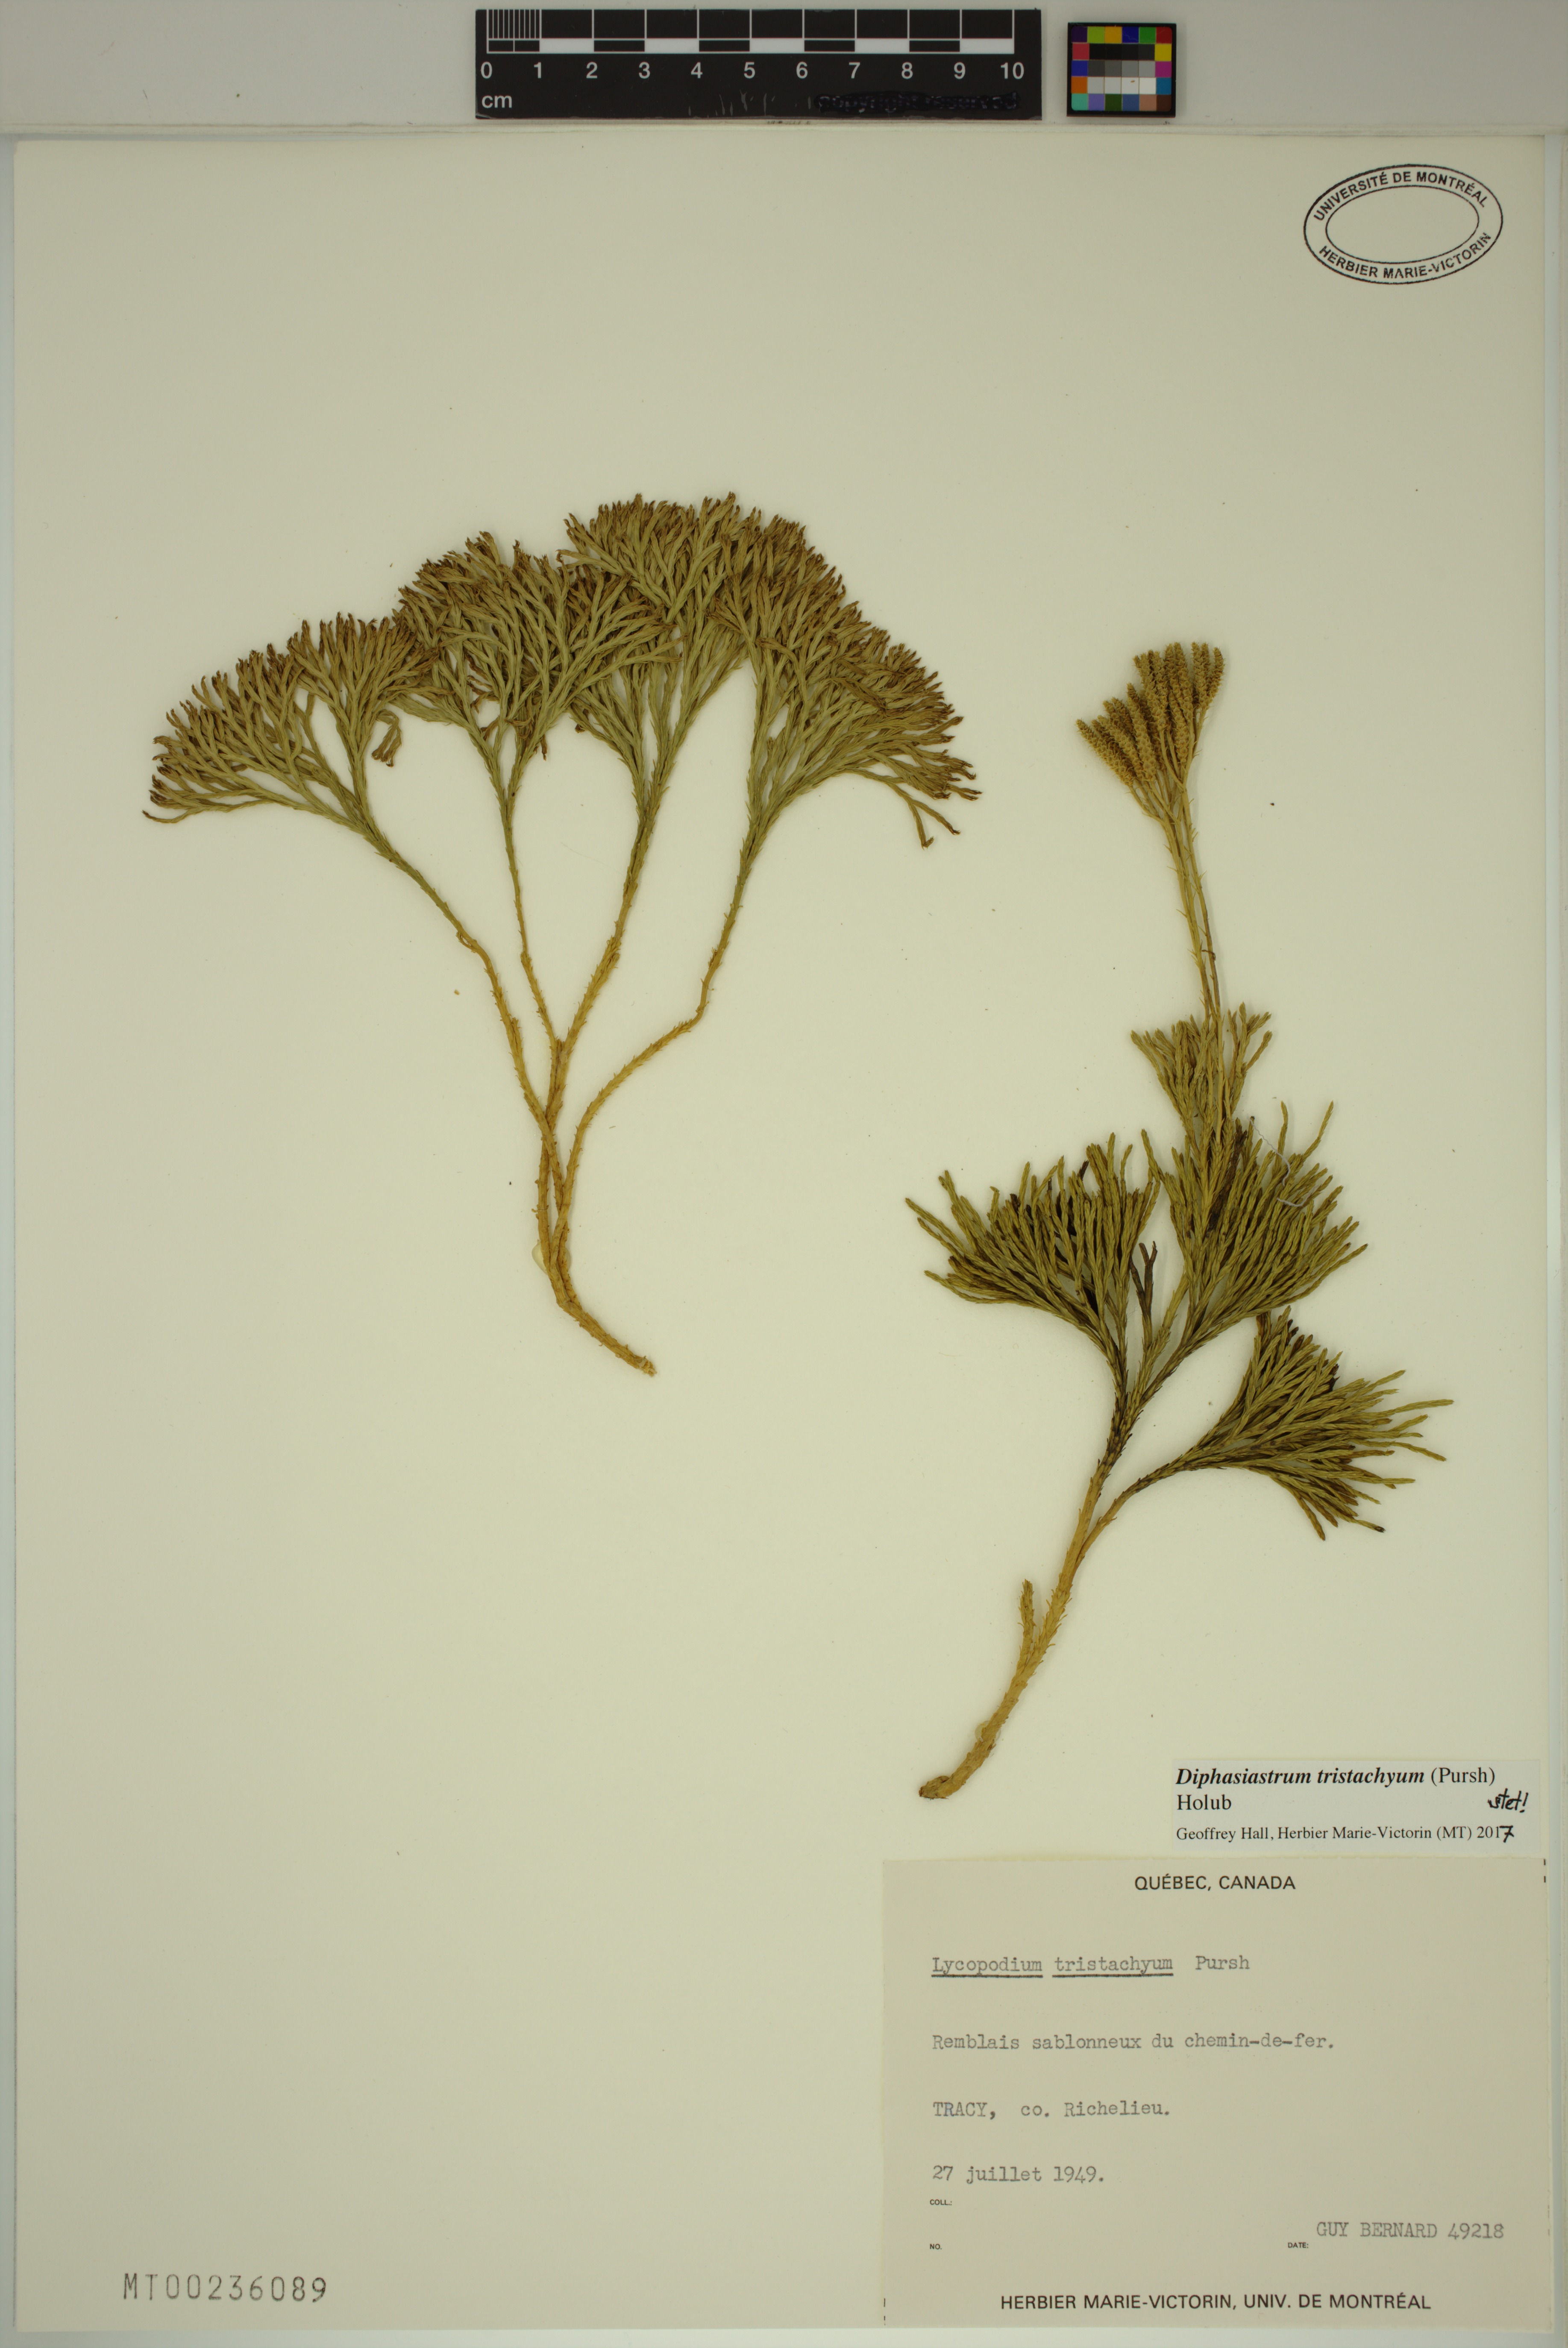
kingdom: Plantae
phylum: Tracheophyta
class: Lycopodiopsida
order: Lycopodiales
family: Lycopodiaceae
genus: Diphasiastrum
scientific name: Diphasiastrum tristachyum
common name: Blue ground-cedar
